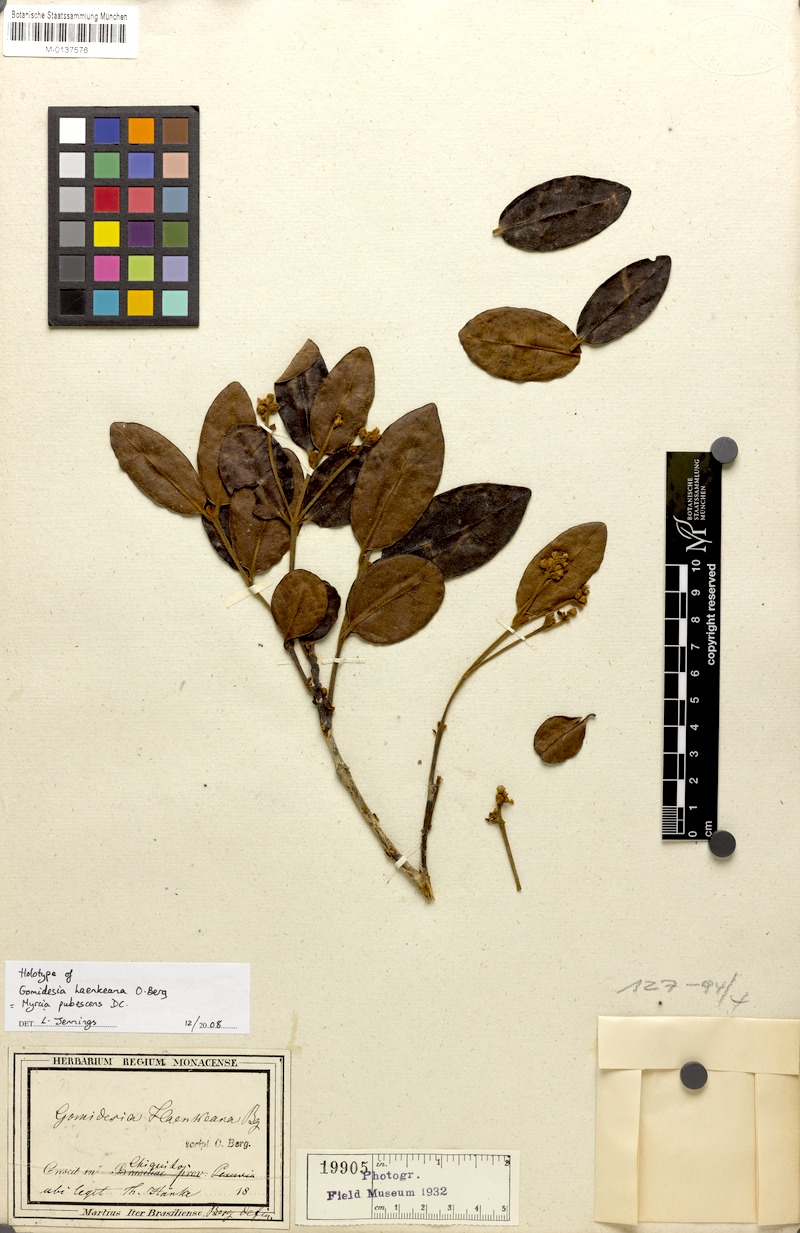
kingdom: Plantae
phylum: Tracheophyta
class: Magnoliopsida
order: Myrtales
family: Myrtaceae
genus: Myrcia
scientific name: Myrcia haenkeana
